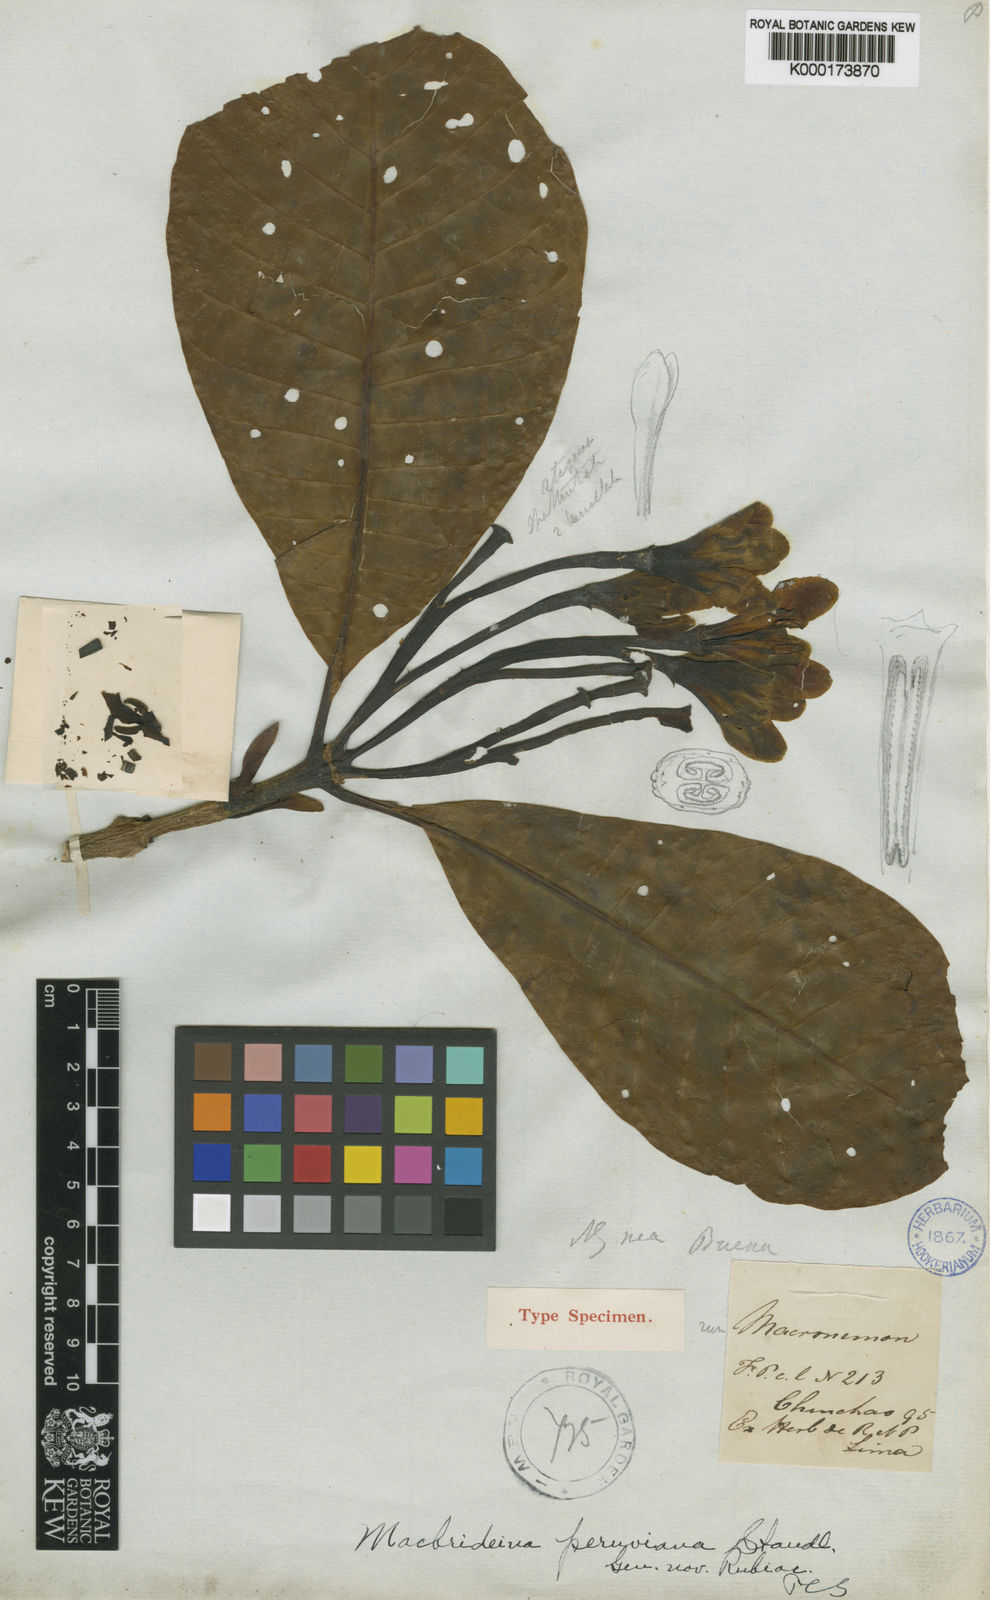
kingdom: Plantae
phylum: Tracheophyta
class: Magnoliopsida
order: Gentianales
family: Rubiaceae
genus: Macbrideina
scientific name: Macbrideina peruviana
